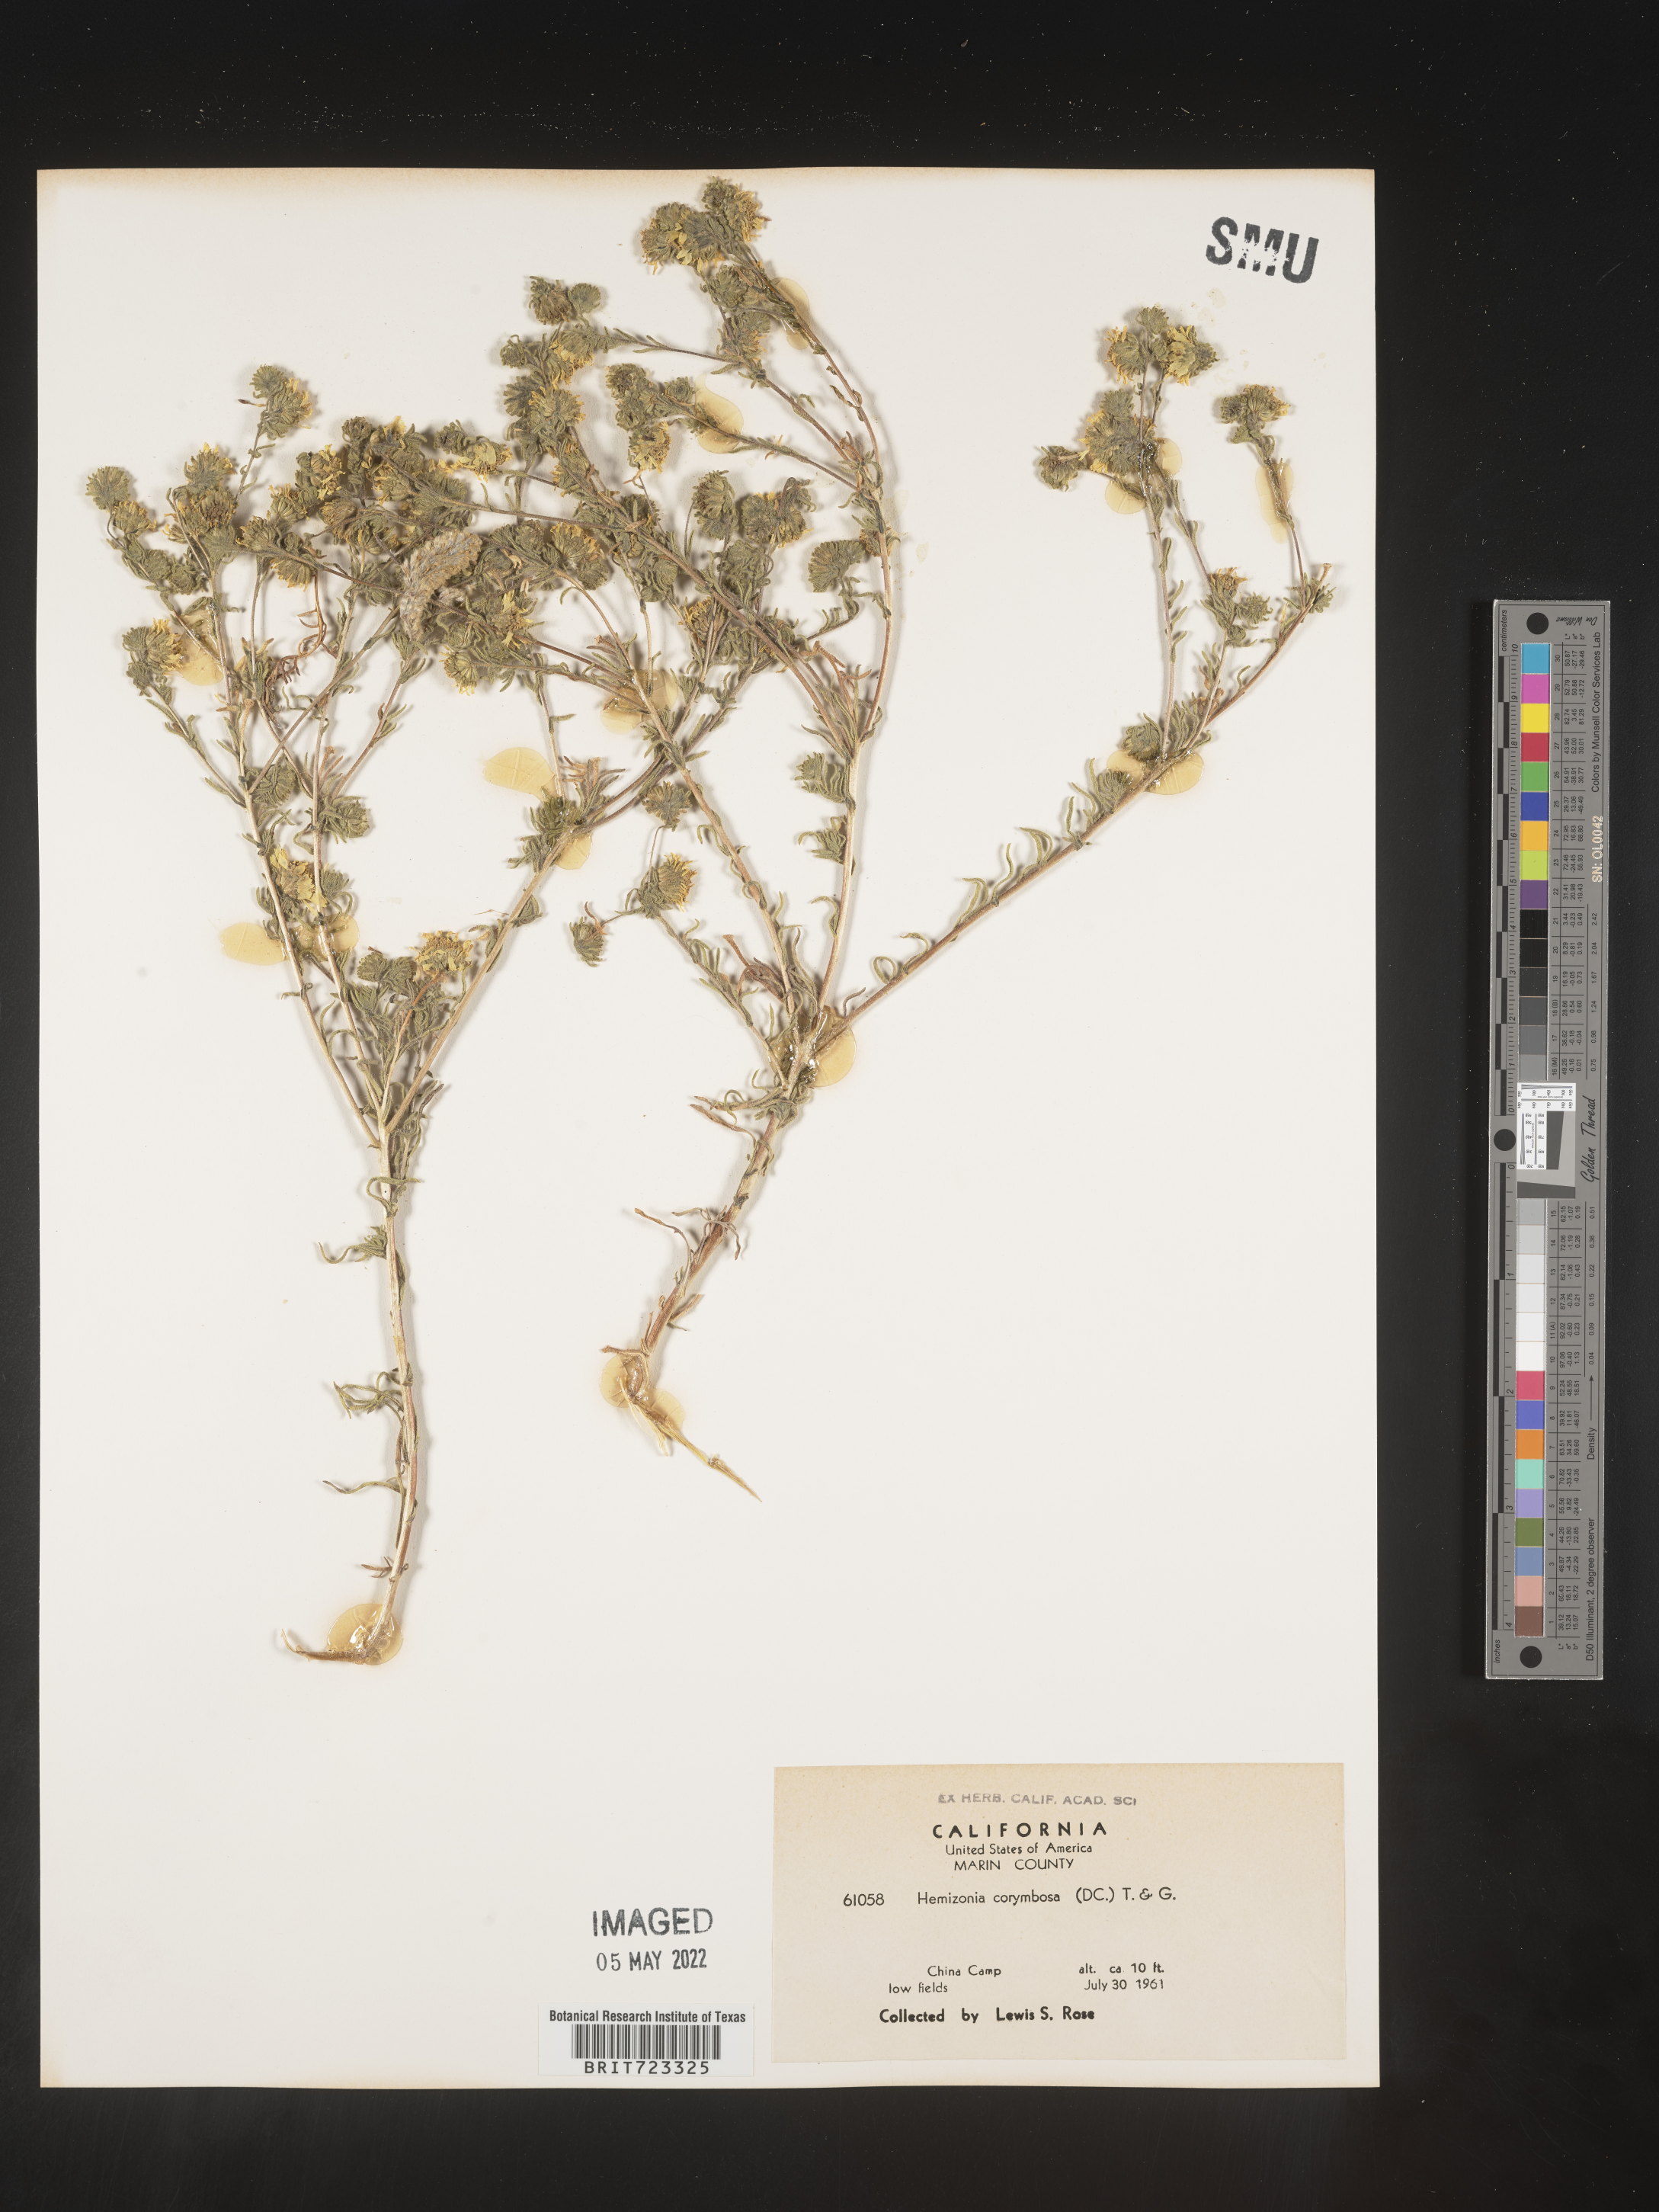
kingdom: Plantae
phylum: Tracheophyta
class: Magnoliopsida
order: Asterales
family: Asteraceae
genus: Hemizonia
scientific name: Hemizonia
